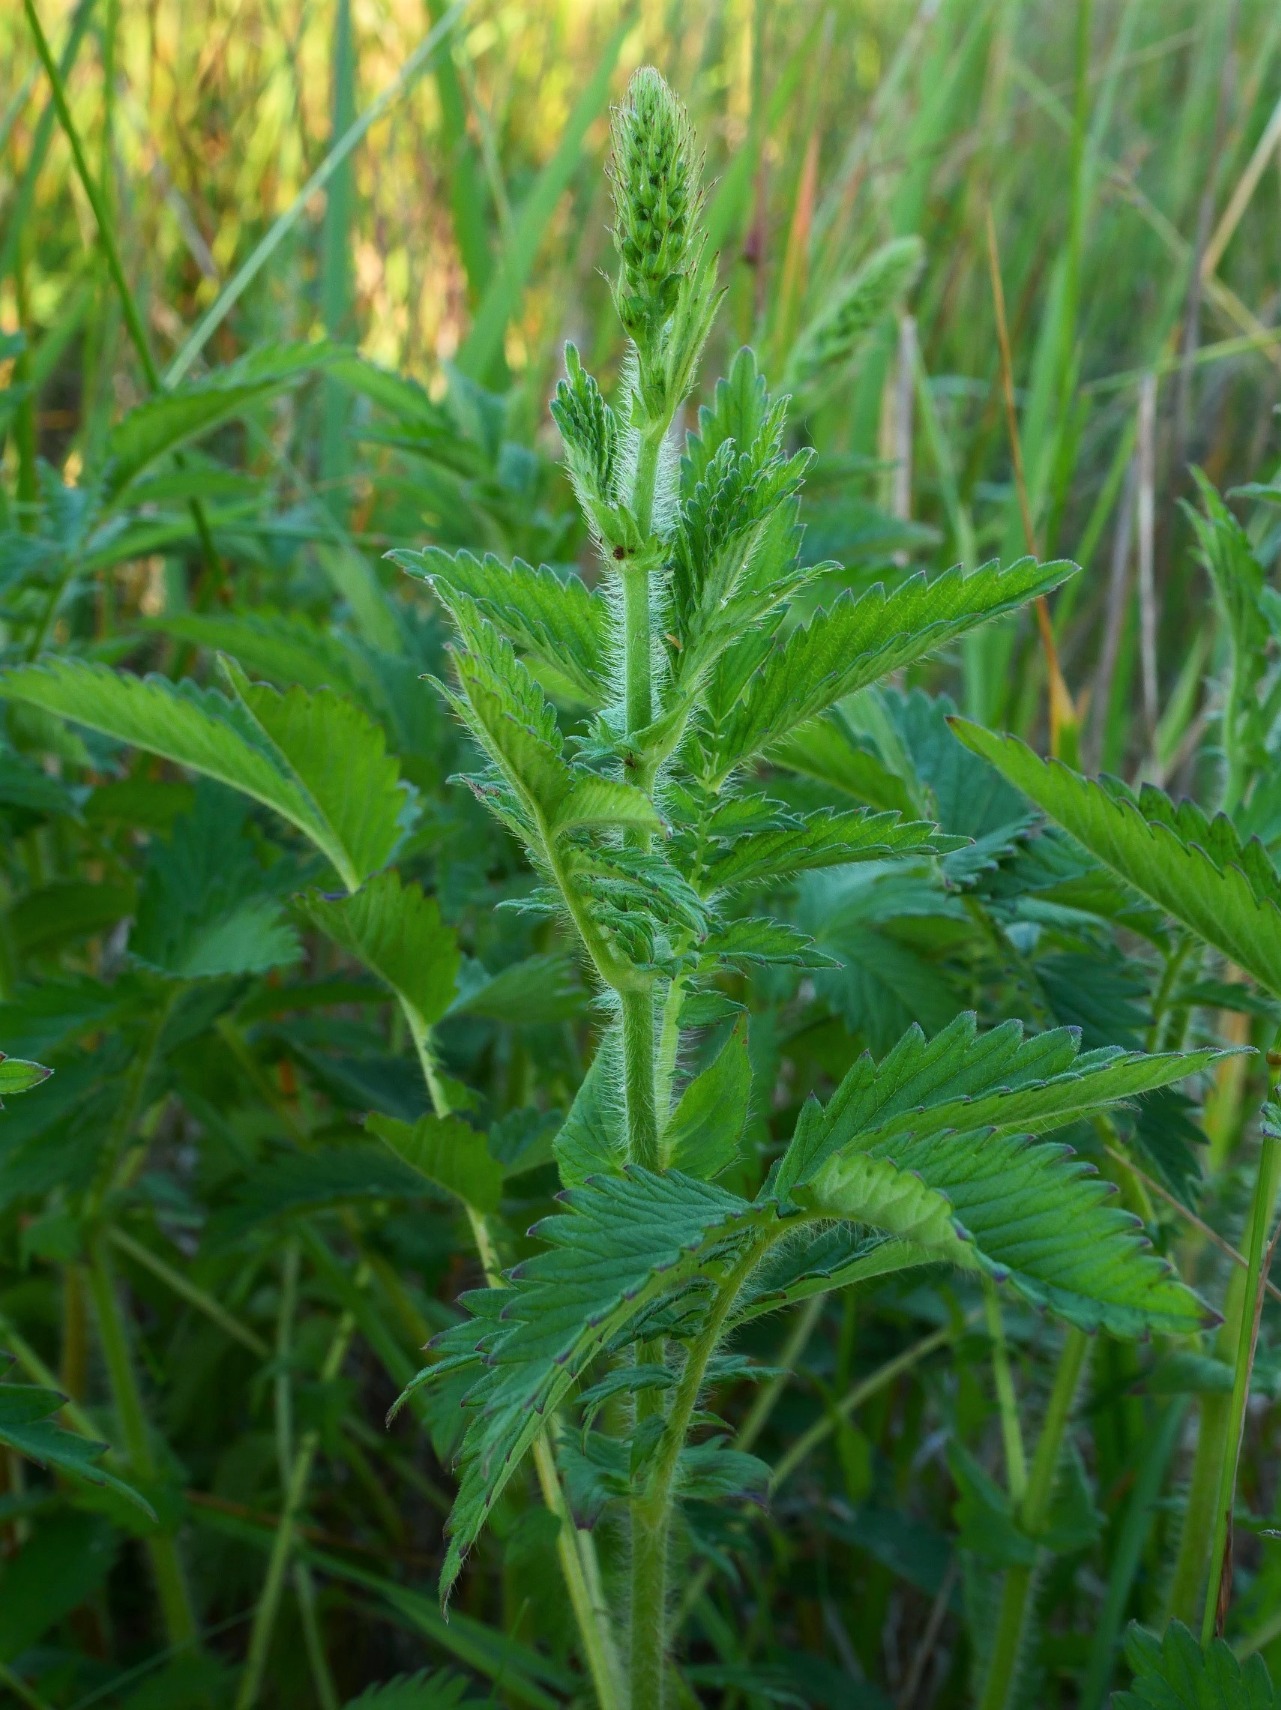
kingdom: Plantae
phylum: Tracheophyta
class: Magnoliopsida
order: Rosales
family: Rosaceae
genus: Agrimonia
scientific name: Agrimonia procera
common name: Vellugtende agermåne
